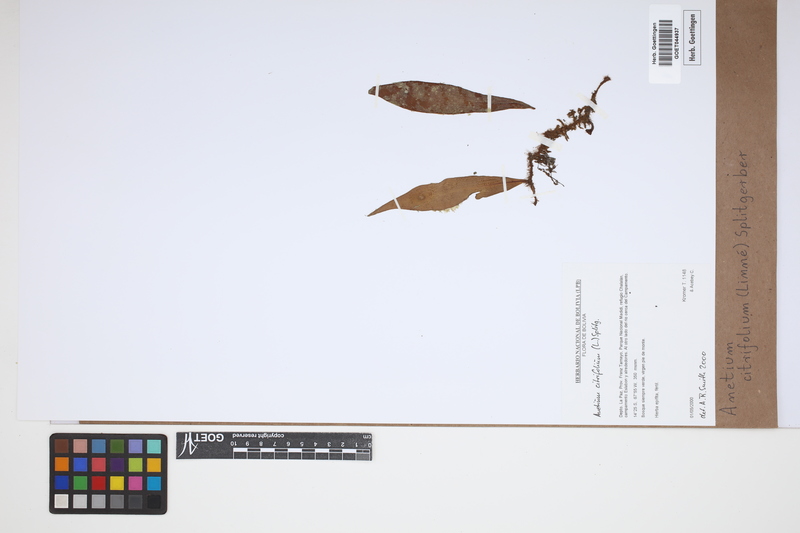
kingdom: Plantae
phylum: Tracheophyta
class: Polypodiopsida
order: Polypodiales
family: Pteridaceae
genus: Polytaenium
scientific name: Polytaenium citrifolium
